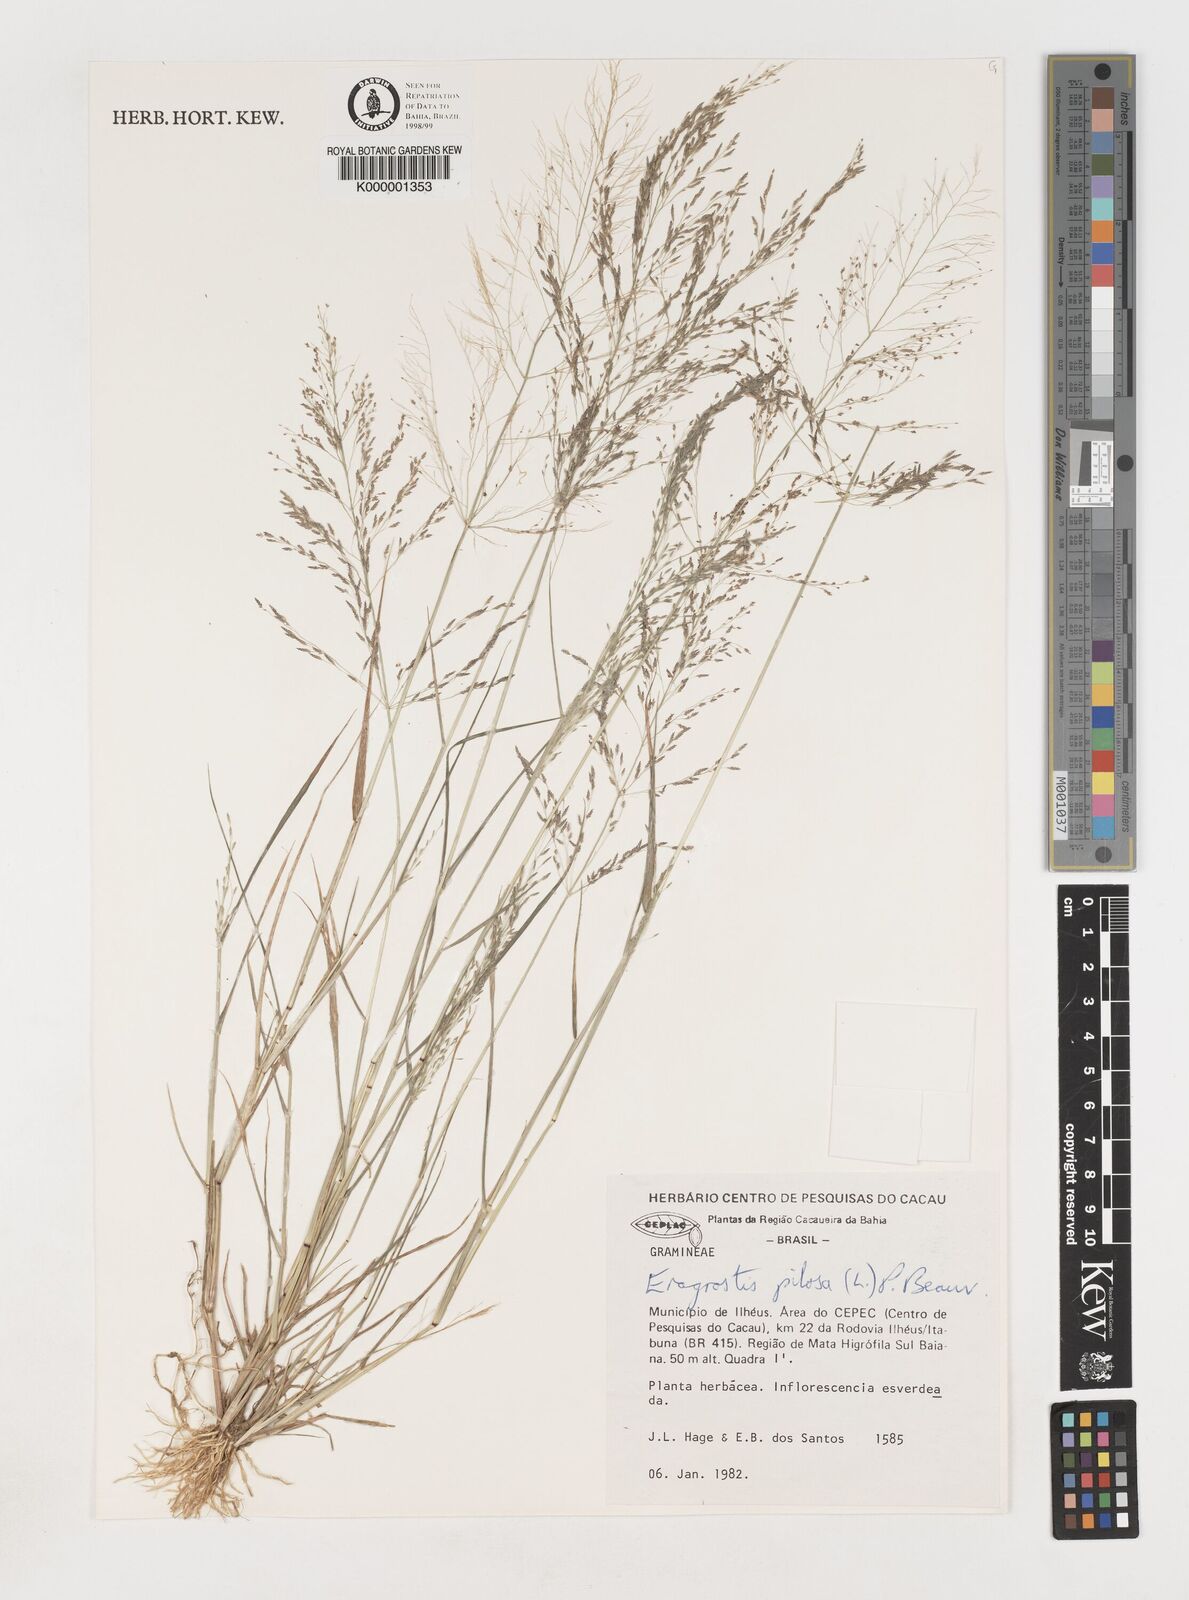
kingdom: Plantae
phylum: Tracheophyta
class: Liliopsida
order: Poales
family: Poaceae
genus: Eragrostis
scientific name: Eragrostis pilosa
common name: Indian lovegrass
